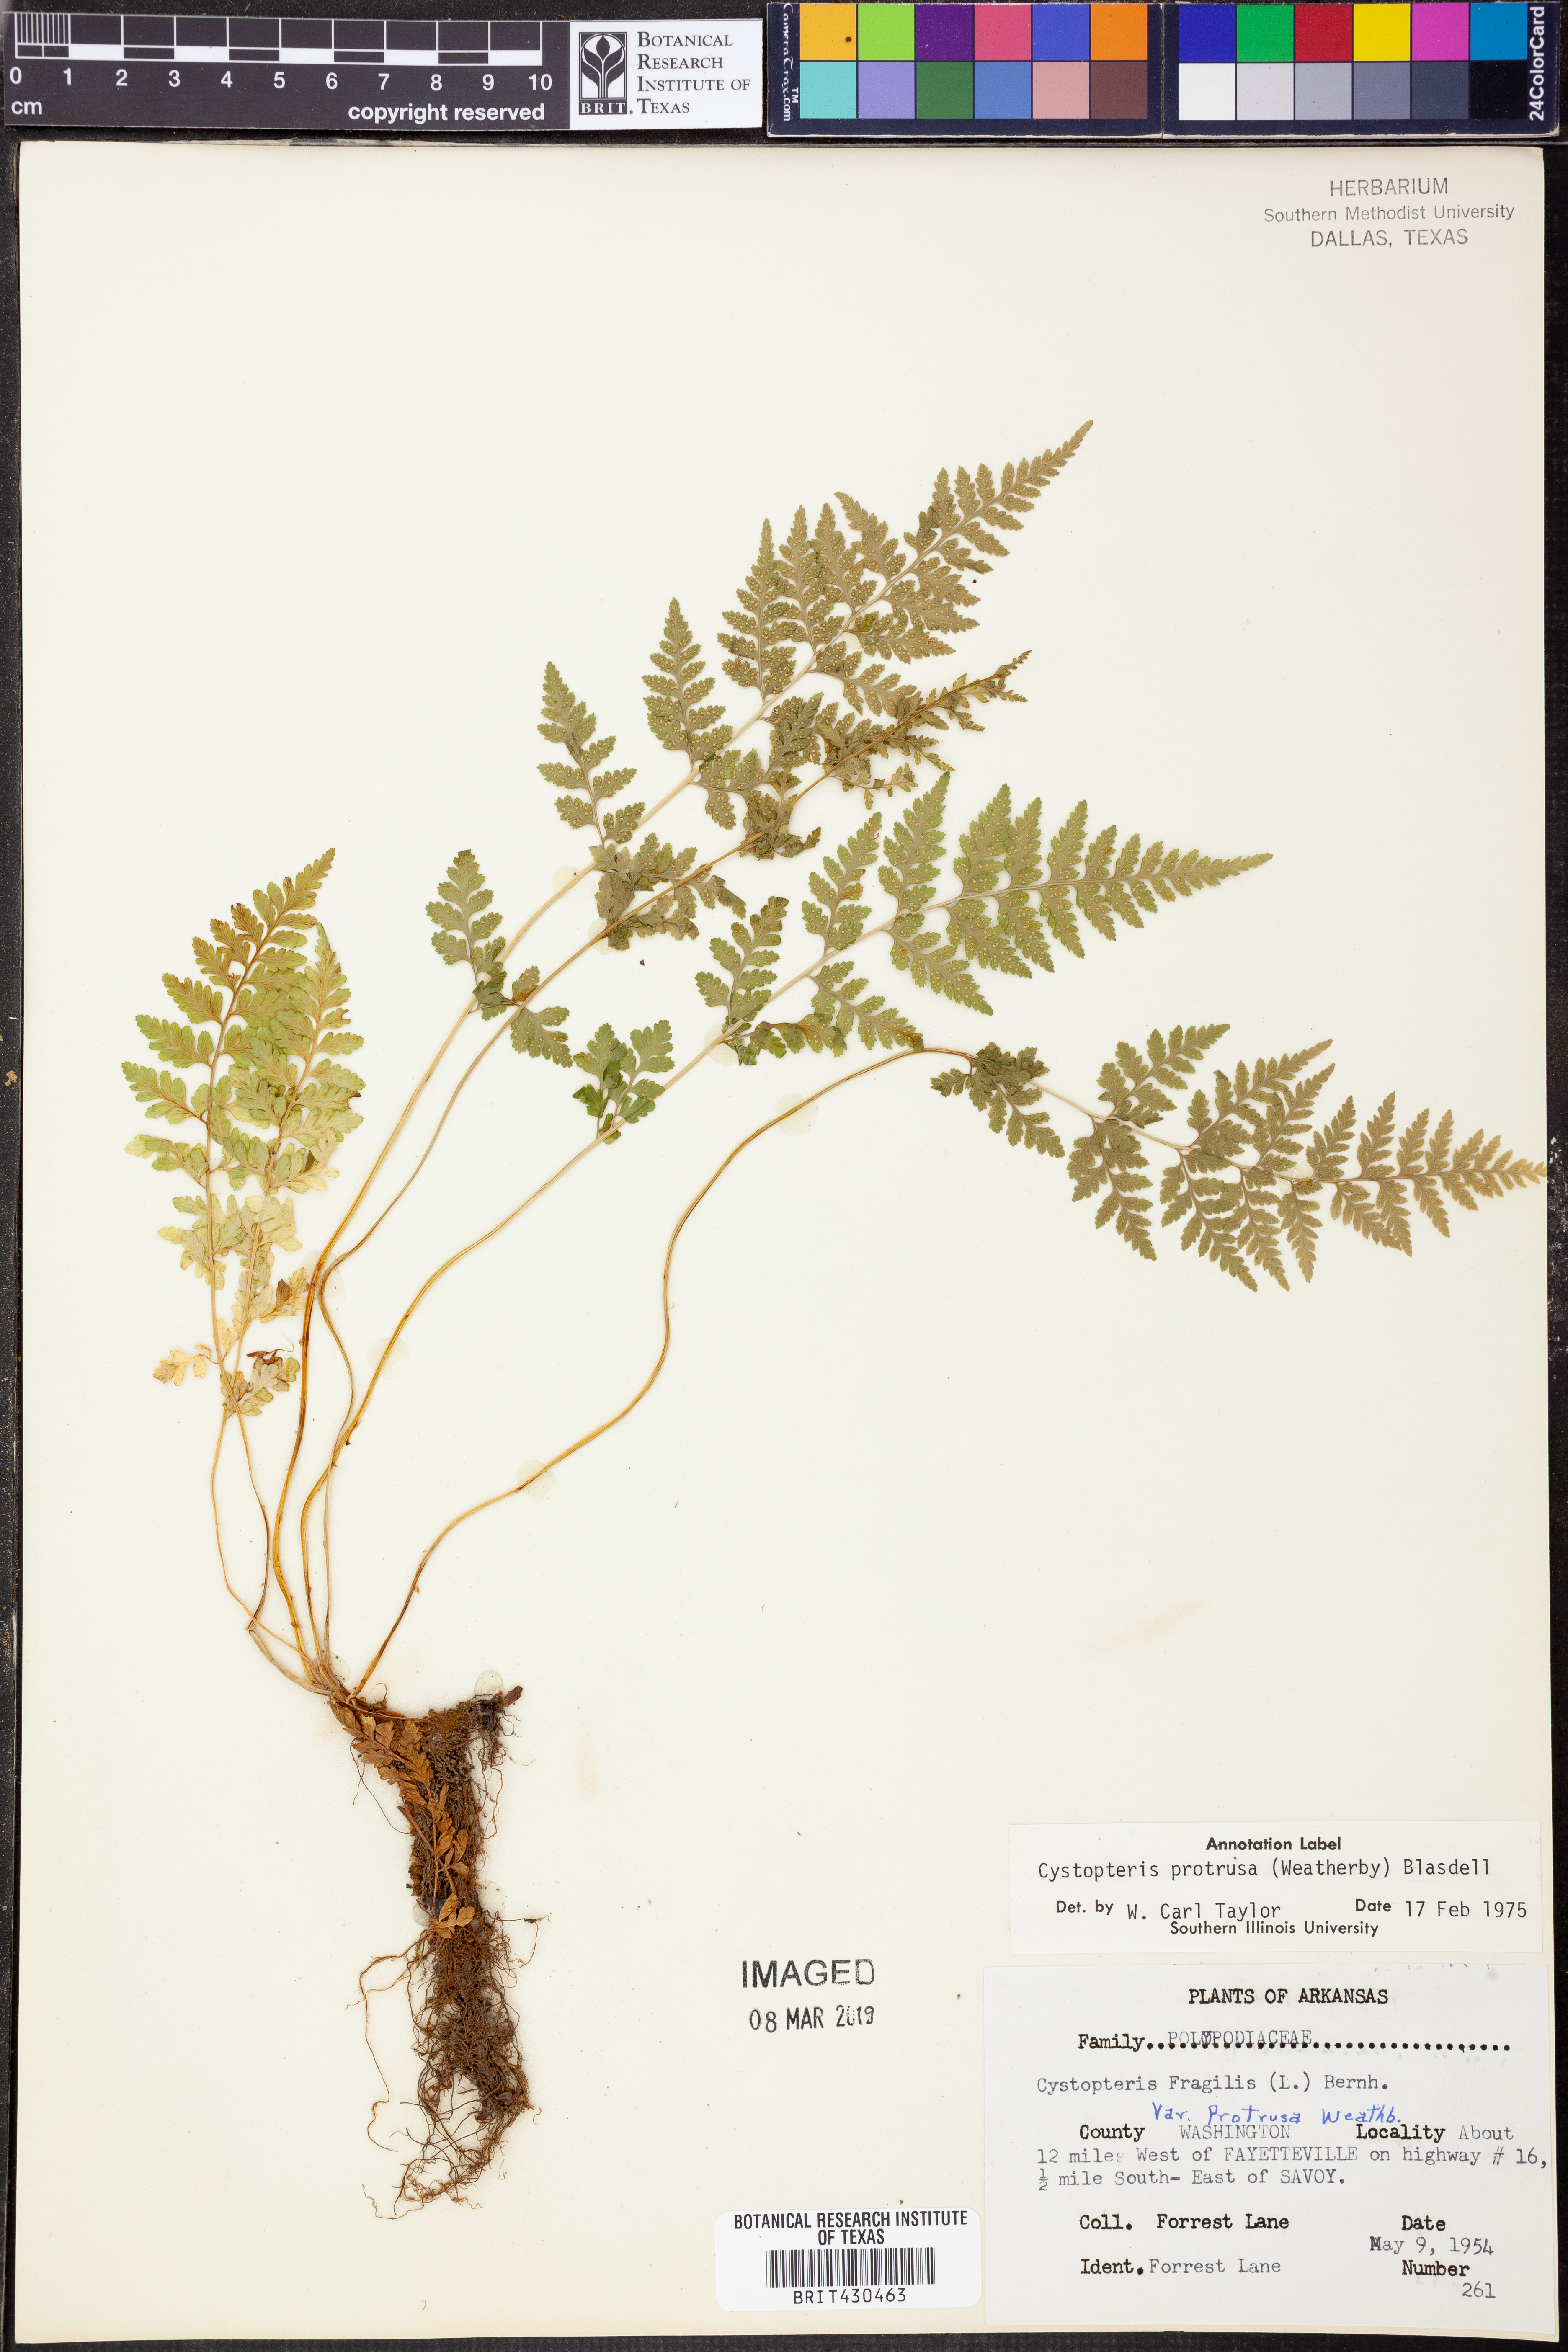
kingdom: Plantae
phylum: Tracheophyta
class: Polypodiopsida
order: Polypodiales
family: Cystopteridaceae
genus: Cystopteris
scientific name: Cystopteris protrusa
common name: Lowland brittle fern
